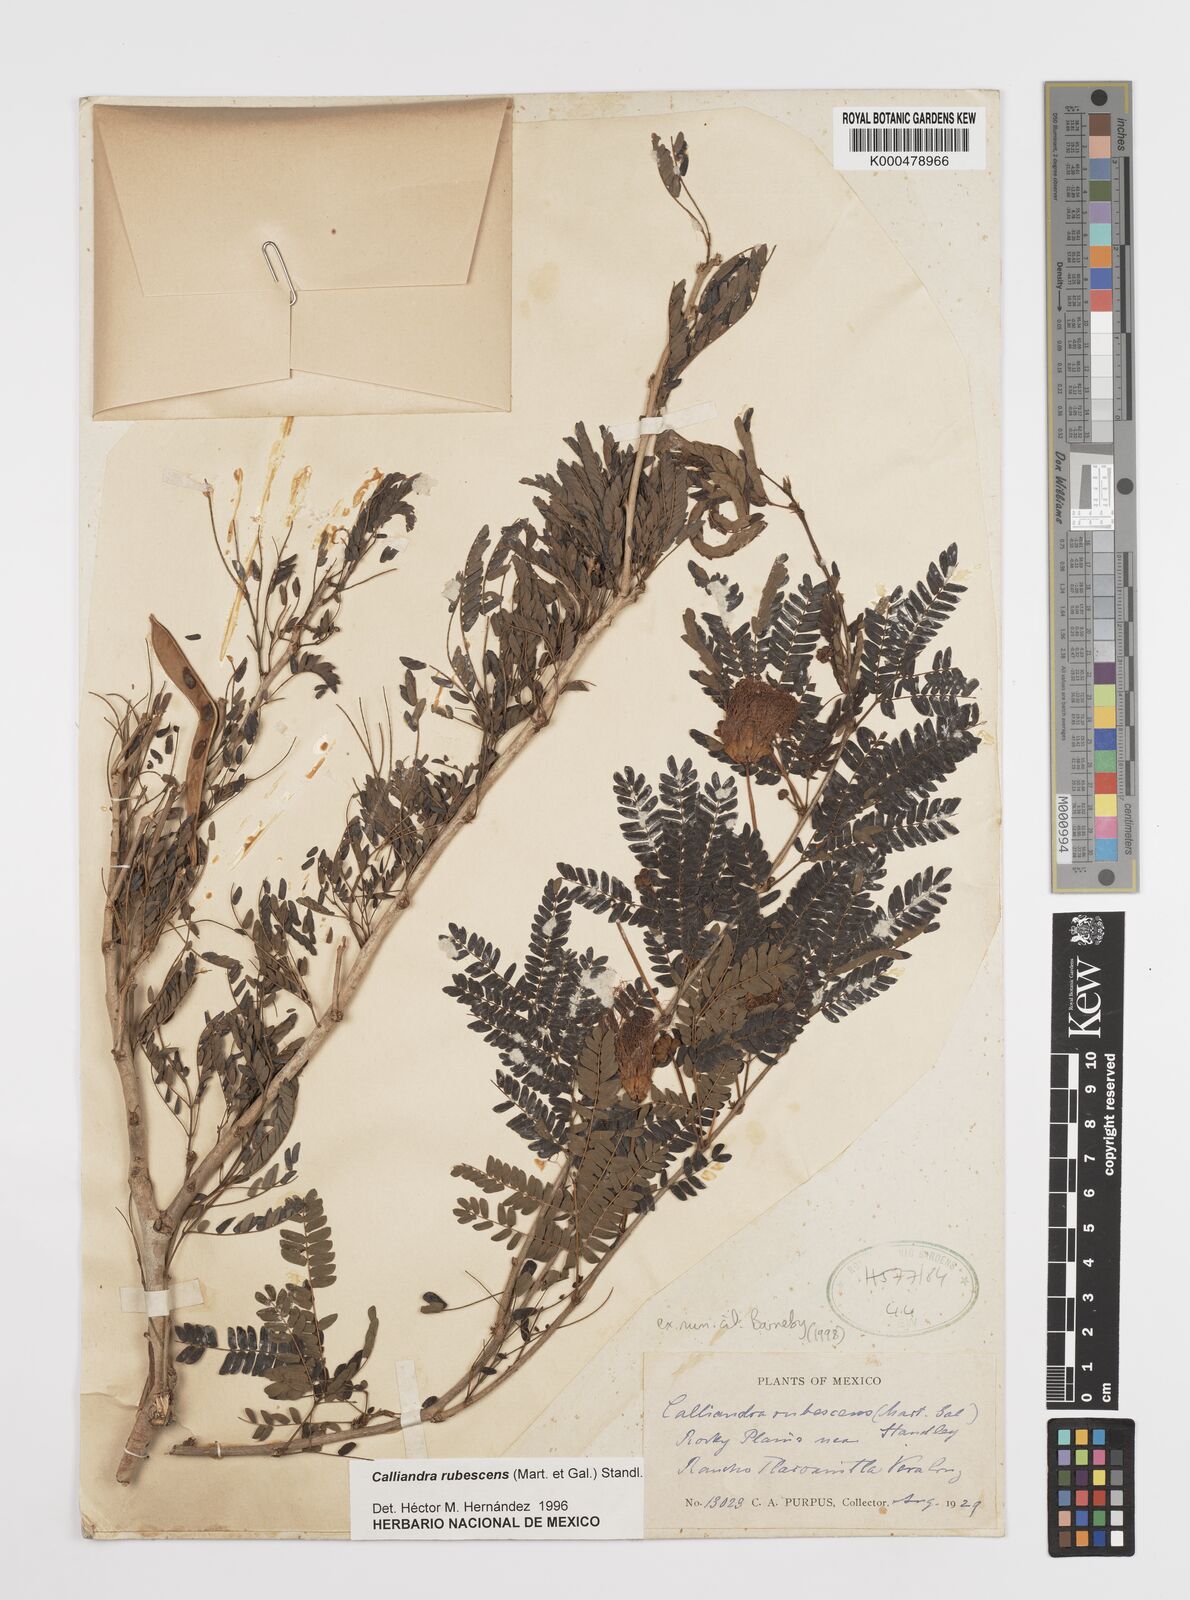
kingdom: Plantae
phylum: Tracheophyta
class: Magnoliopsida
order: Fabales
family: Fabaceae
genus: Calliandra
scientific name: Calliandra rubescens
